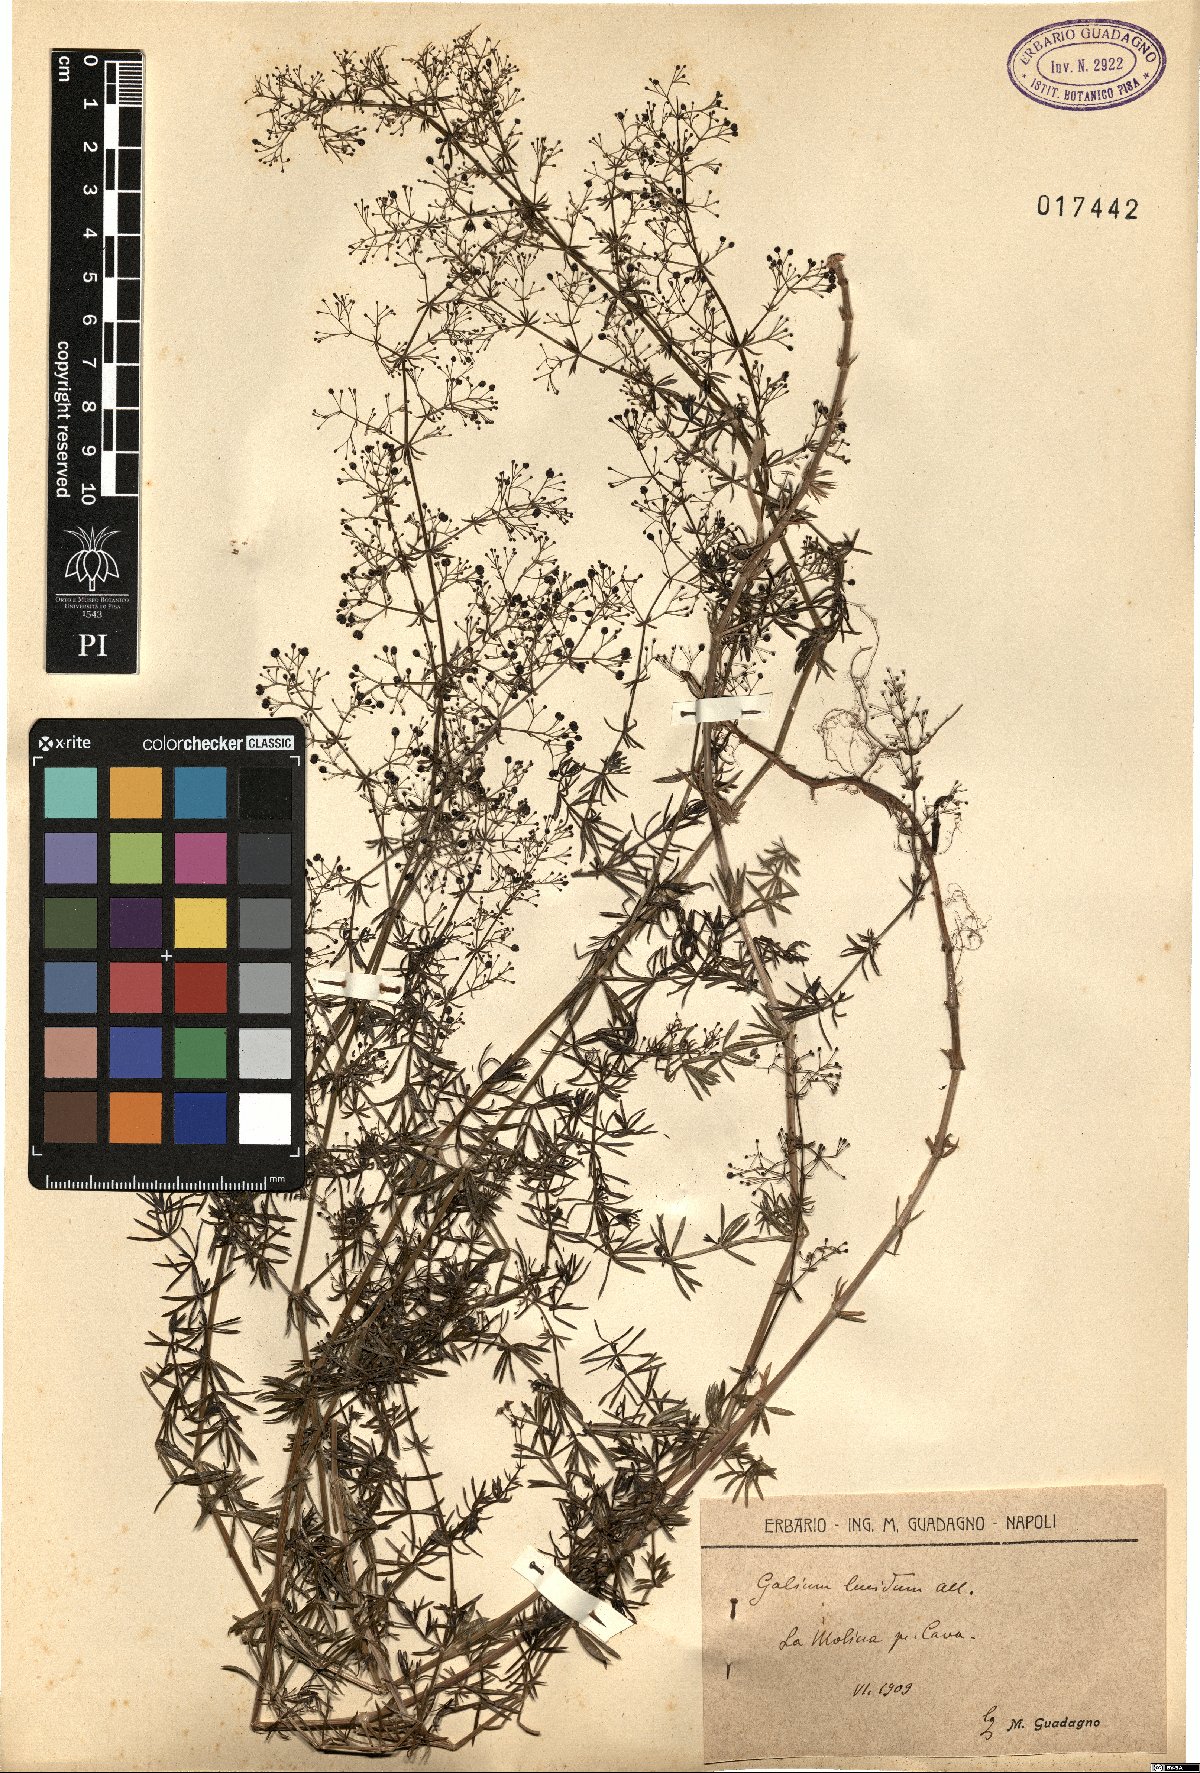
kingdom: Plantae
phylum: Tracheophyta
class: Magnoliopsida
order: Gentianales
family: Rubiaceae
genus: Galium
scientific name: Galium lucidum
